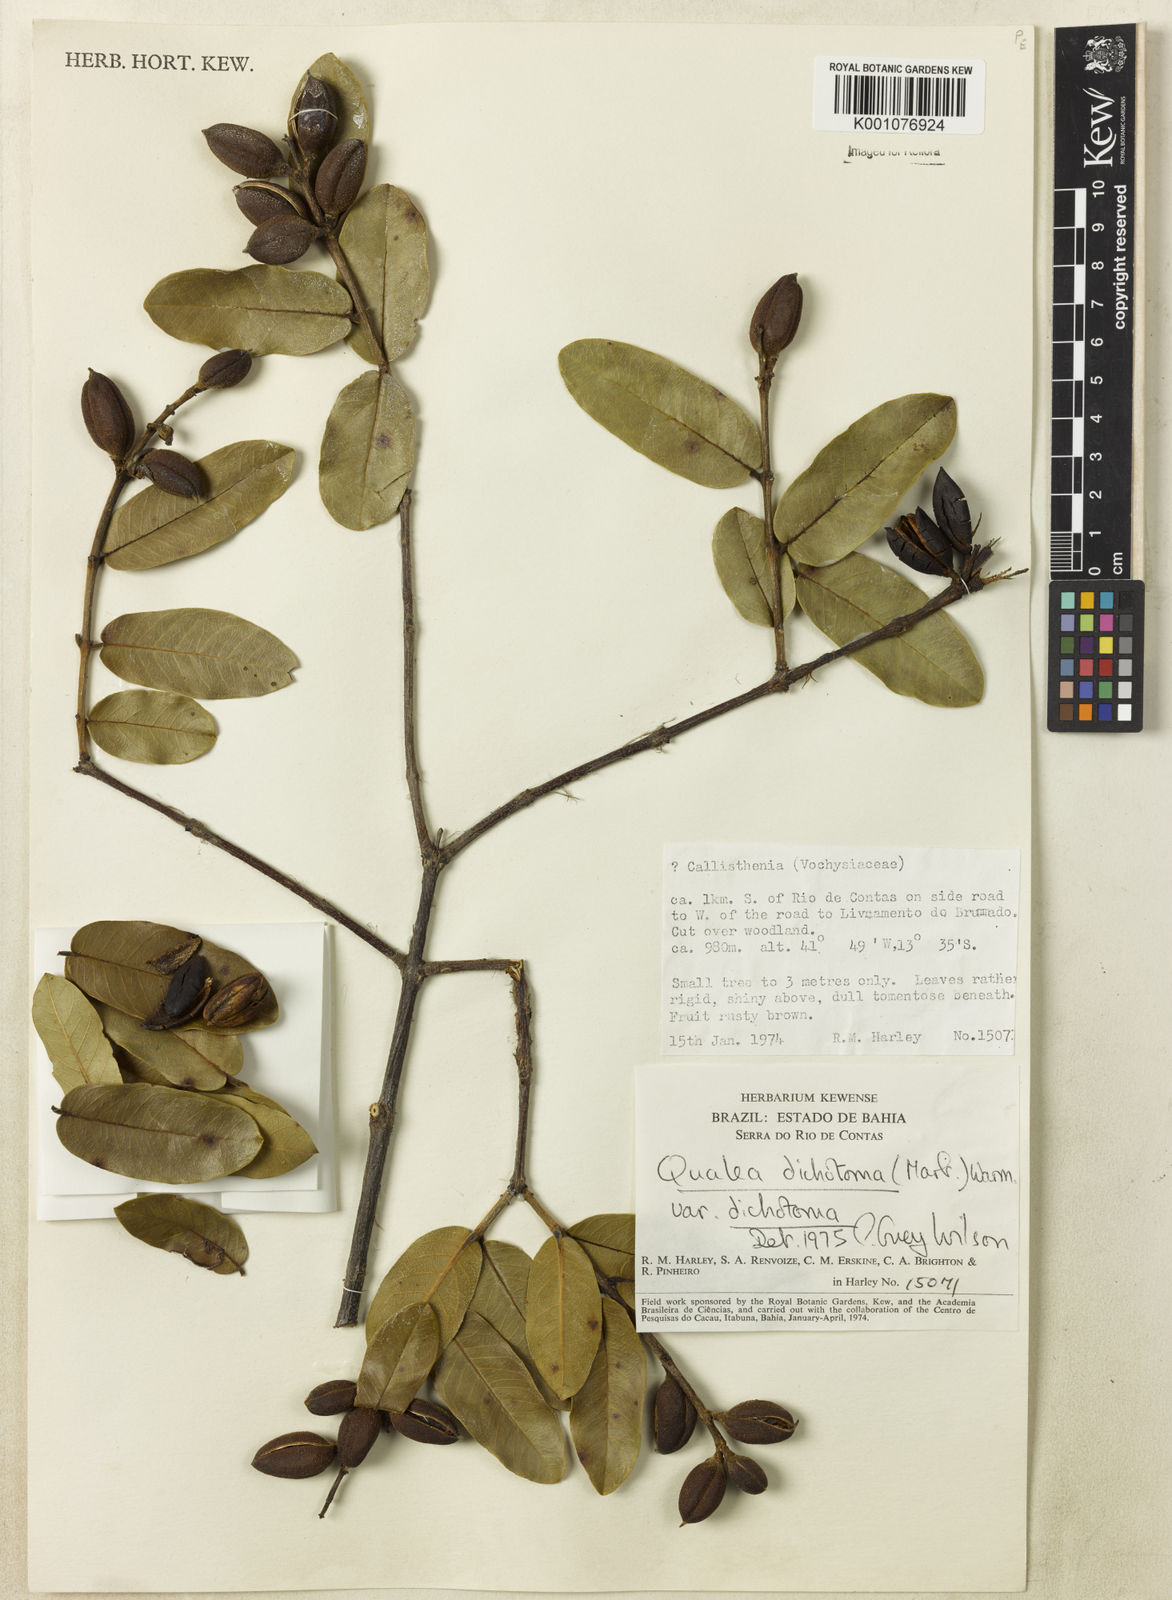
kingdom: Plantae
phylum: Tracheophyta
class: Magnoliopsida
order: Myrtales
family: Vochysiaceae
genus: Qualea
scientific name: Qualea
